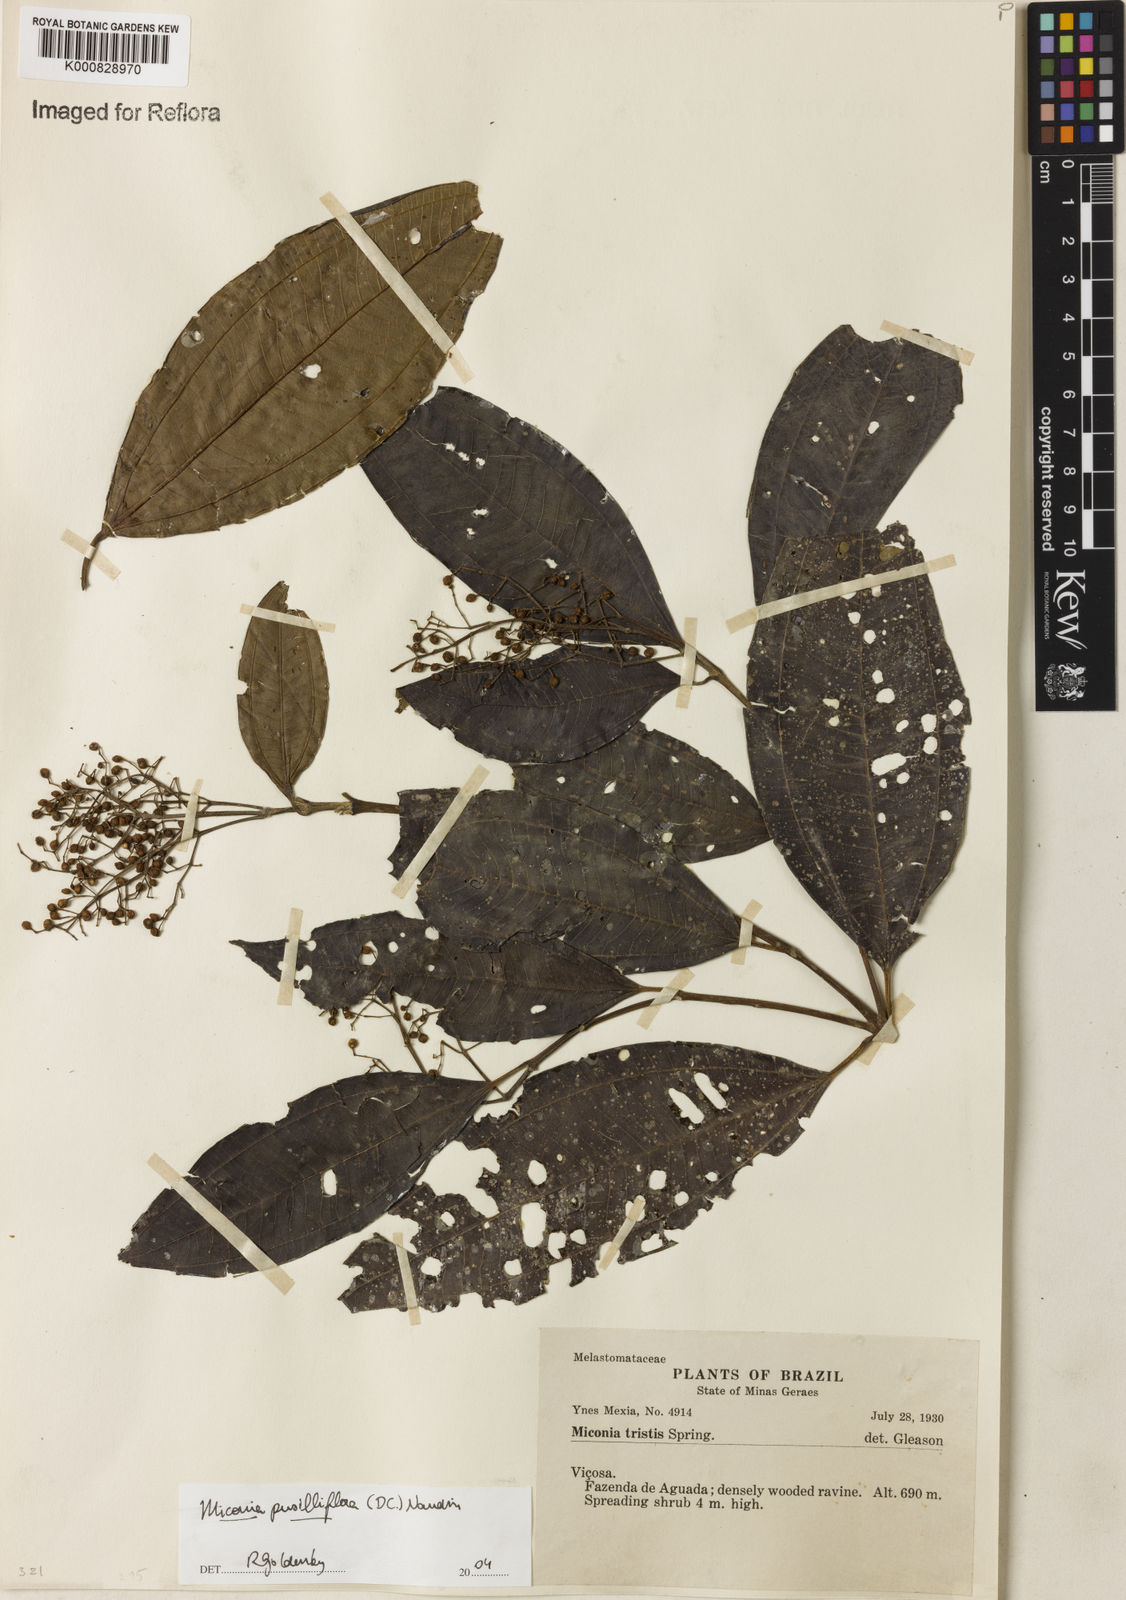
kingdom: Plantae
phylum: Tracheophyta
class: Magnoliopsida
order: Myrtales
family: Melastomataceae
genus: Miconia
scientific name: Miconia pusilliflora
